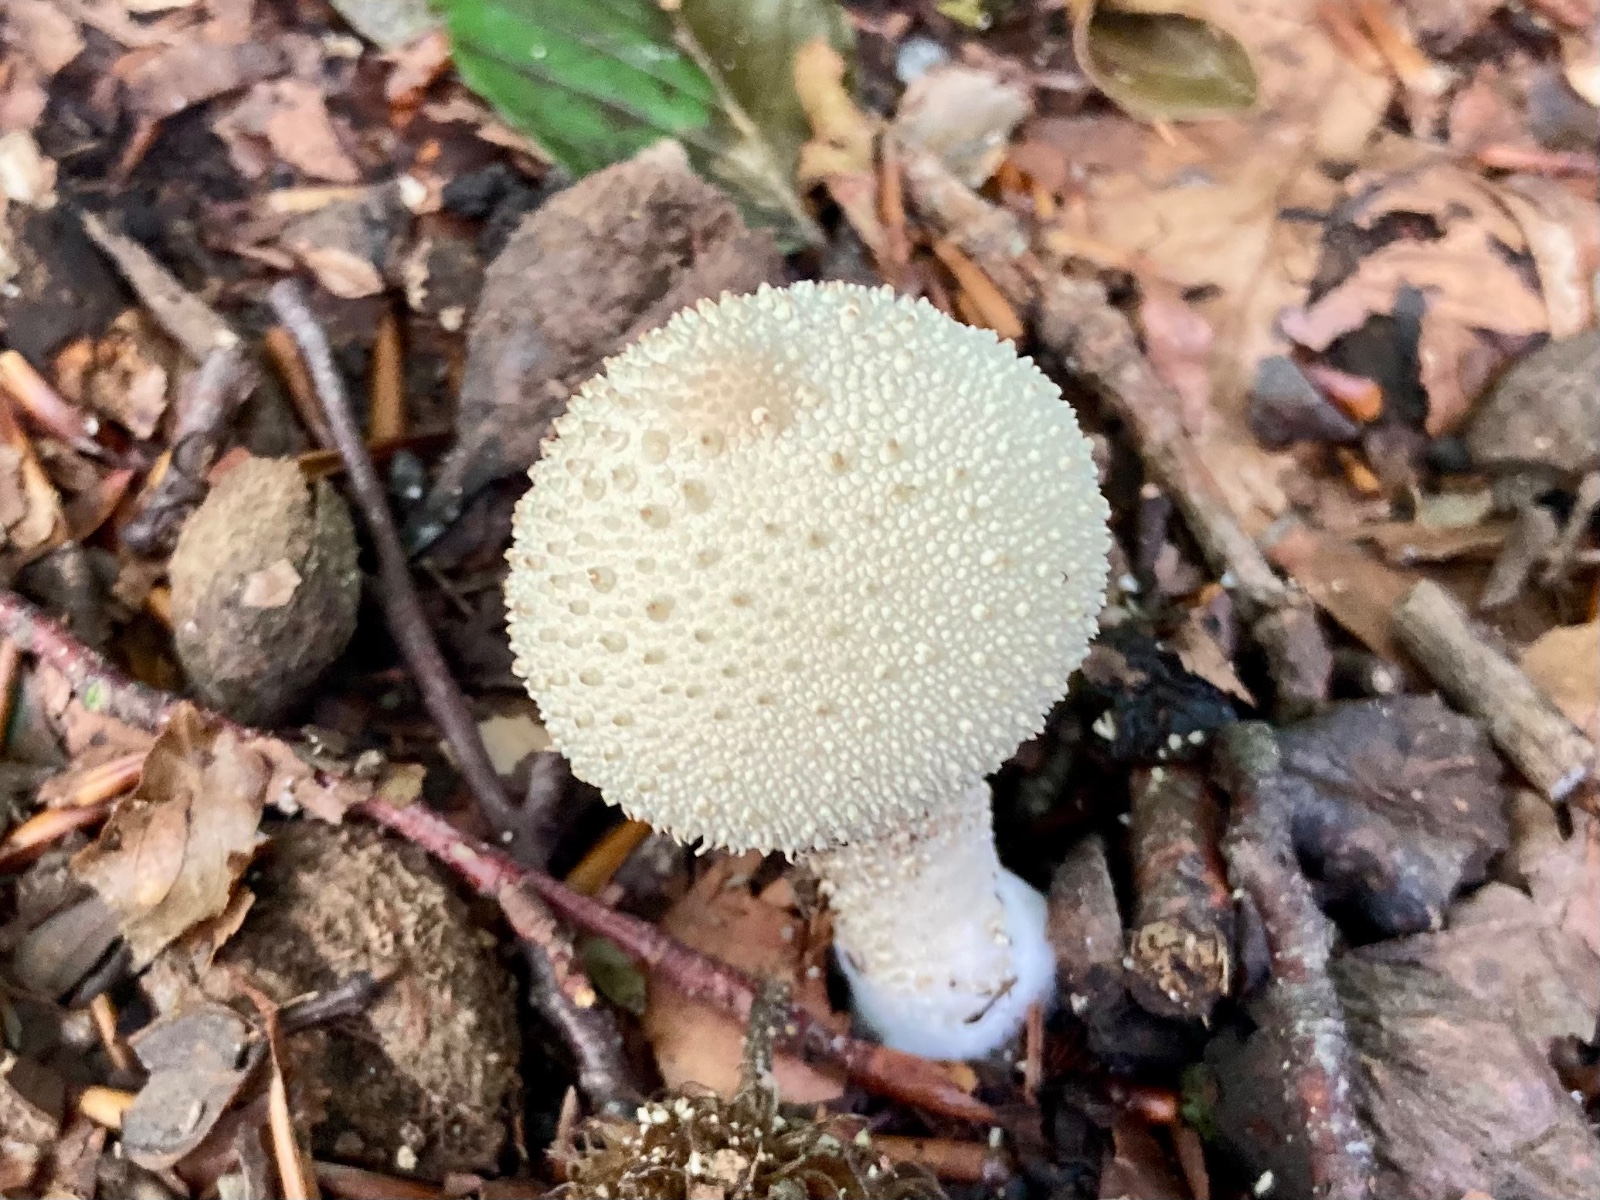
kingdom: Fungi
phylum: Basidiomycota
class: Agaricomycetes
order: Agaricales
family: Lycoperdaceae
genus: Lycoperdon
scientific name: Lycoperdon perlatum
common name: krystal-støvbold
